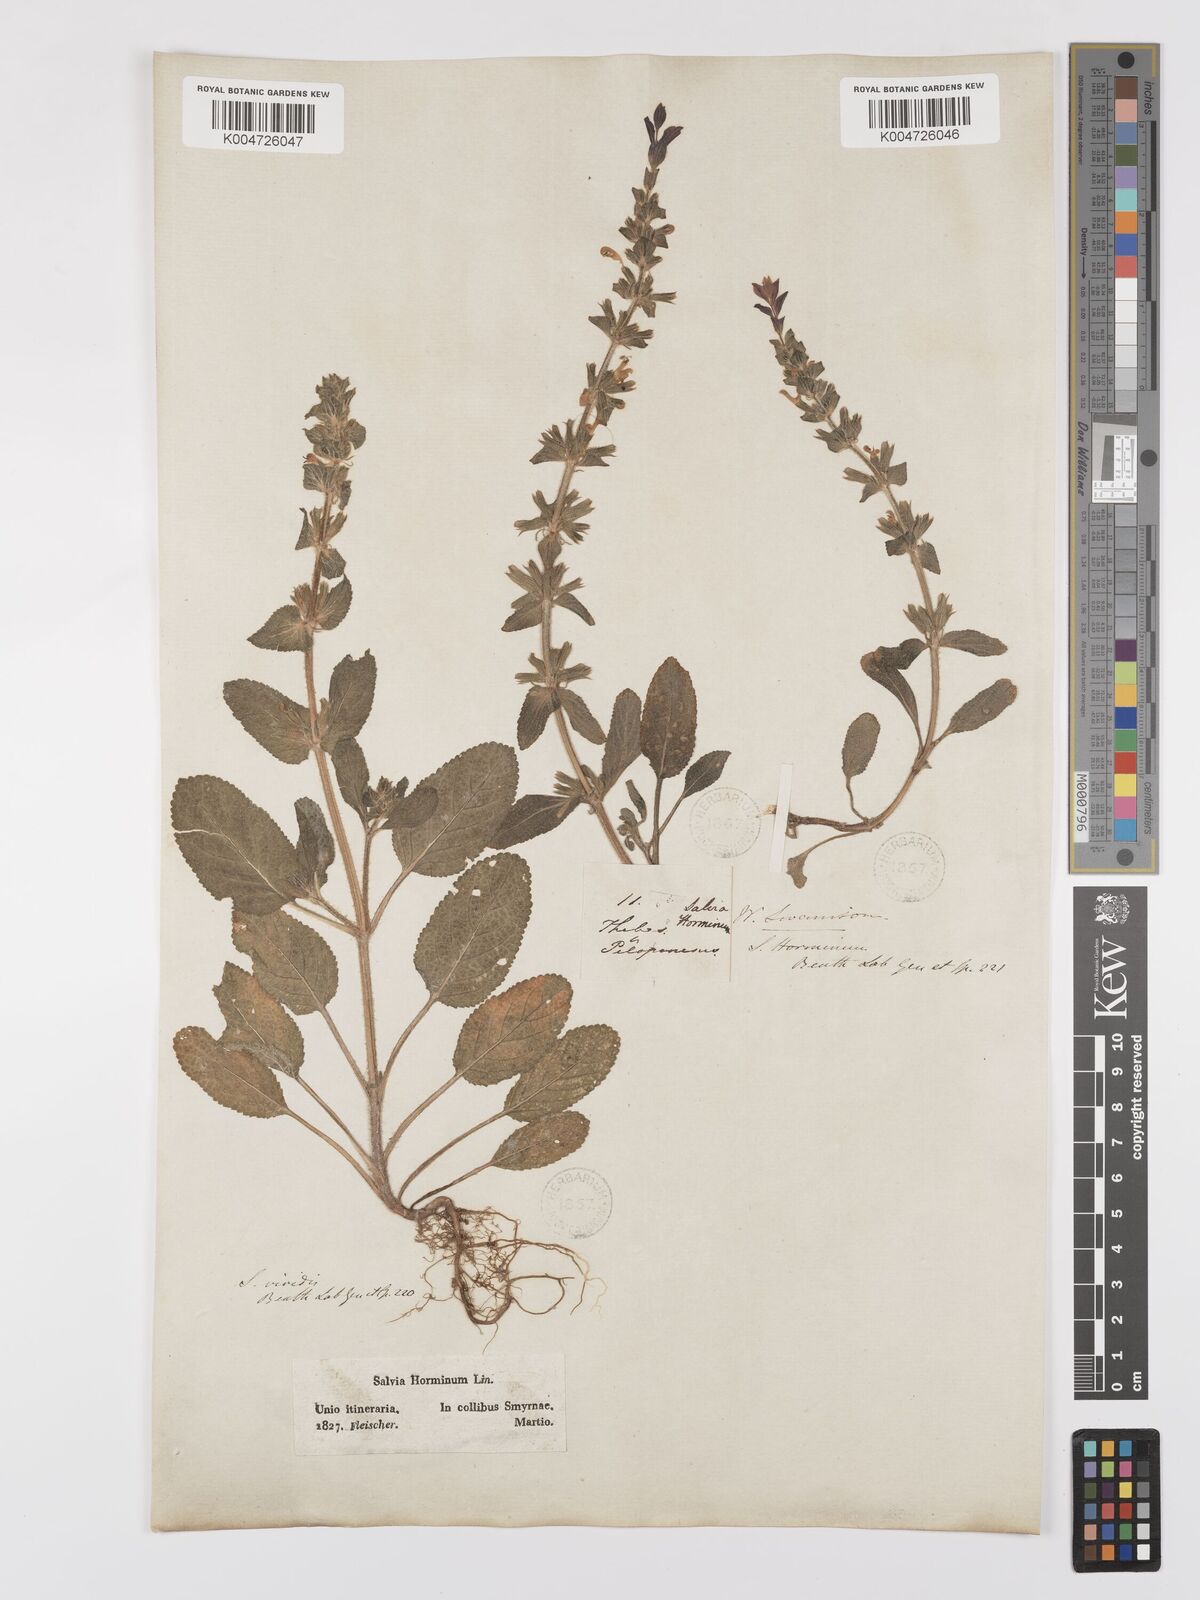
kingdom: Plantae
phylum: Tracheophyta
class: Magnoliopsida
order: Lamiales
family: Lamiaceae
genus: Salvia
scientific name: Salvia viridis
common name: Annual clary
